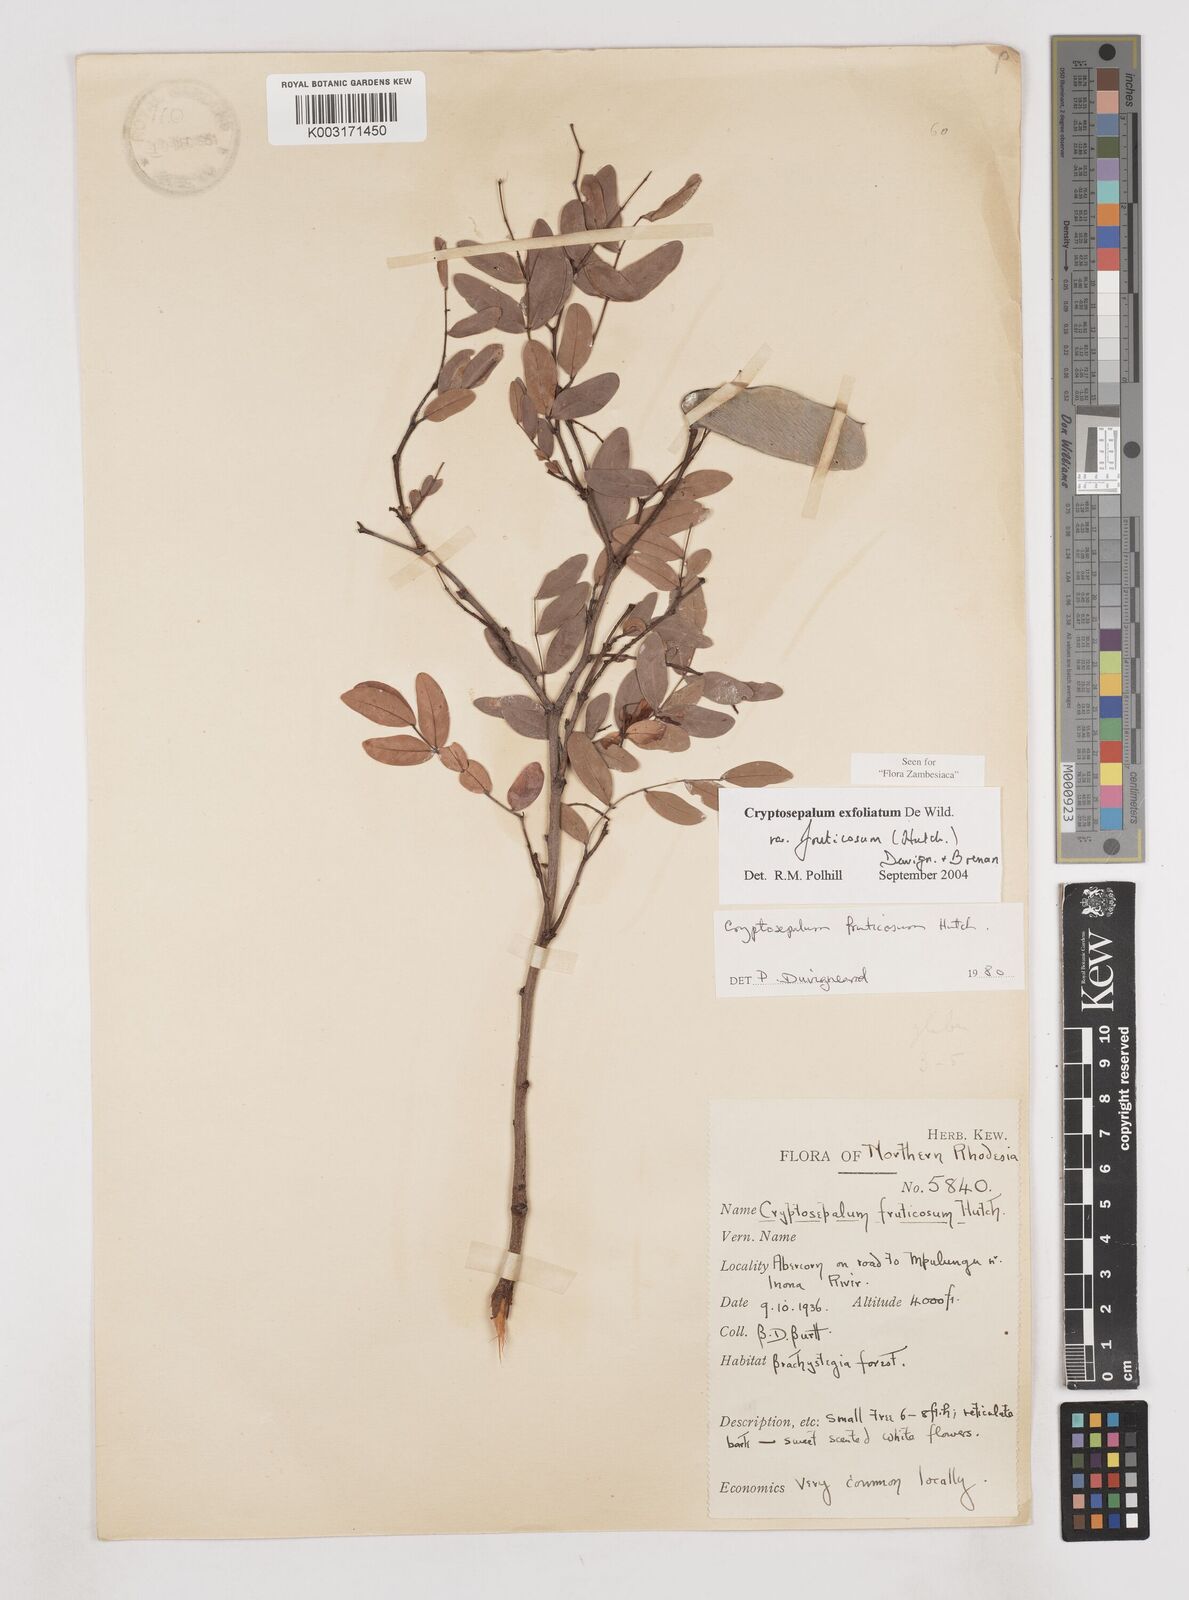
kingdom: Plantae
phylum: Tracheophyta
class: Magnoliopsida
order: Fabales
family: Fabaceae
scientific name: Fabaceae
